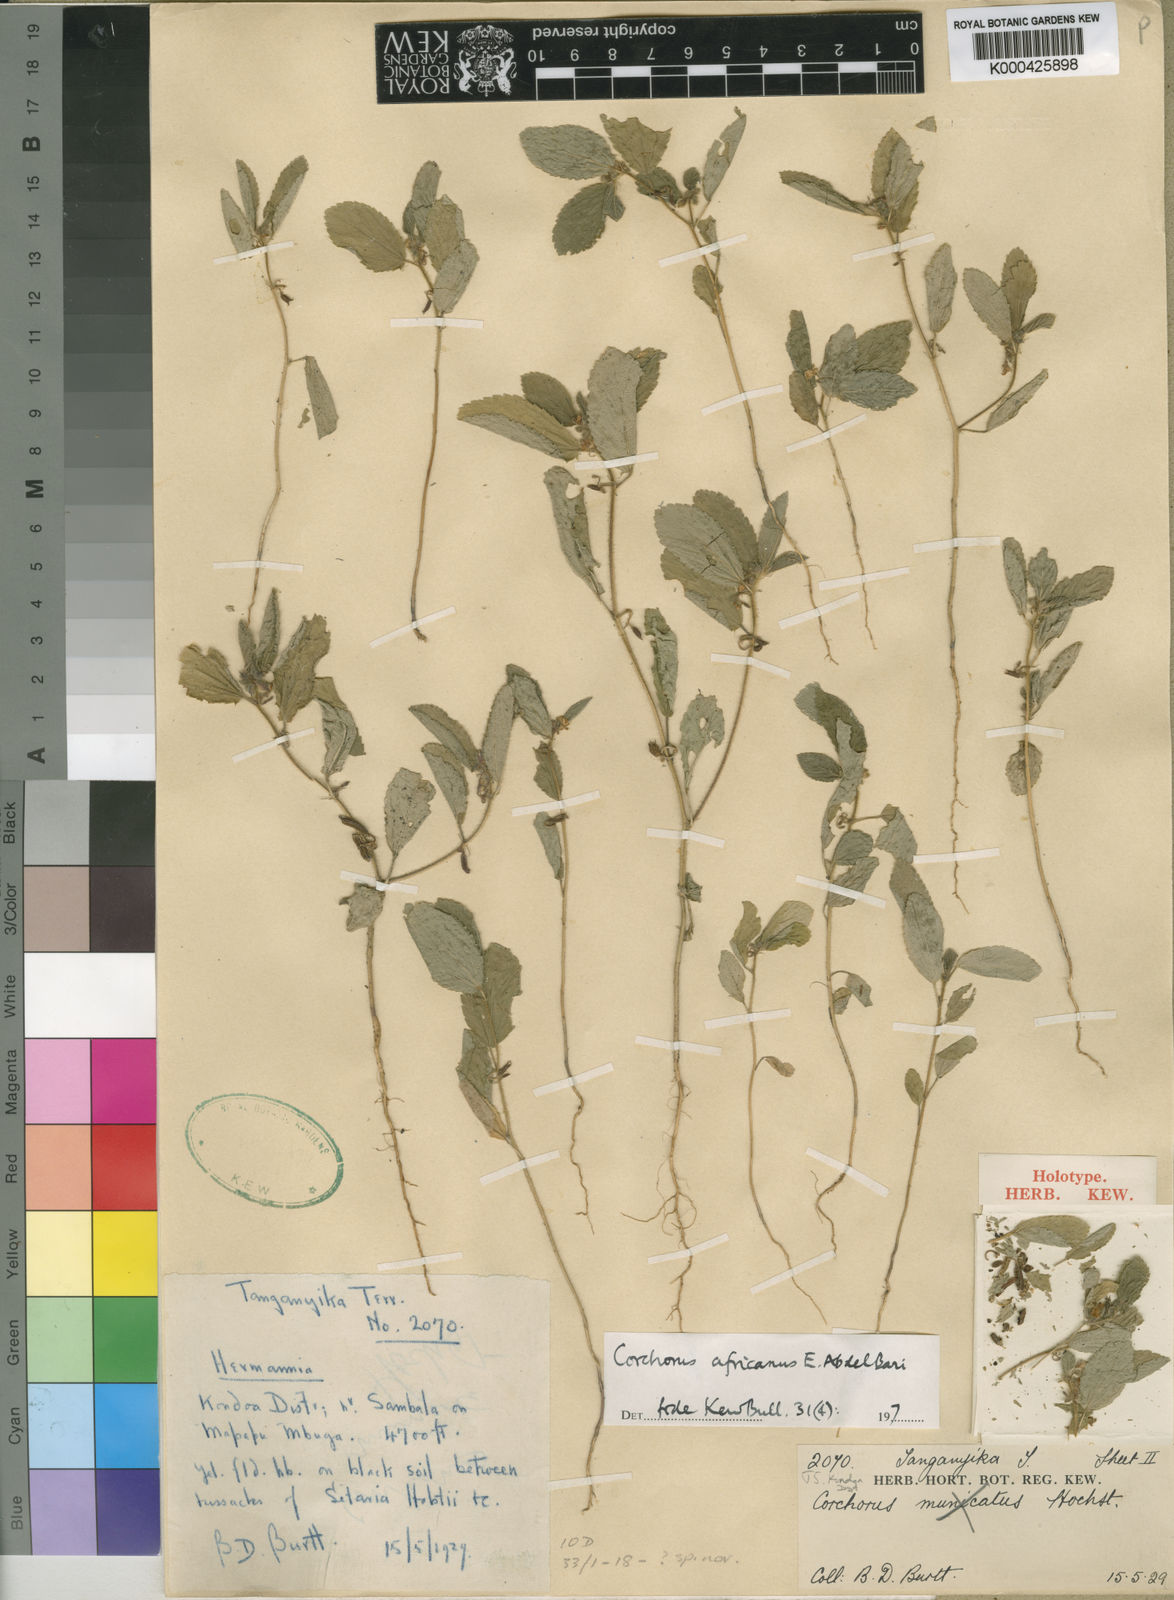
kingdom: Plantae
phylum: Tracheophyta
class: Magnoliopsida
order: Malvales
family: Malvaceae
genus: Corchorus
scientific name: Corchorus africanus
